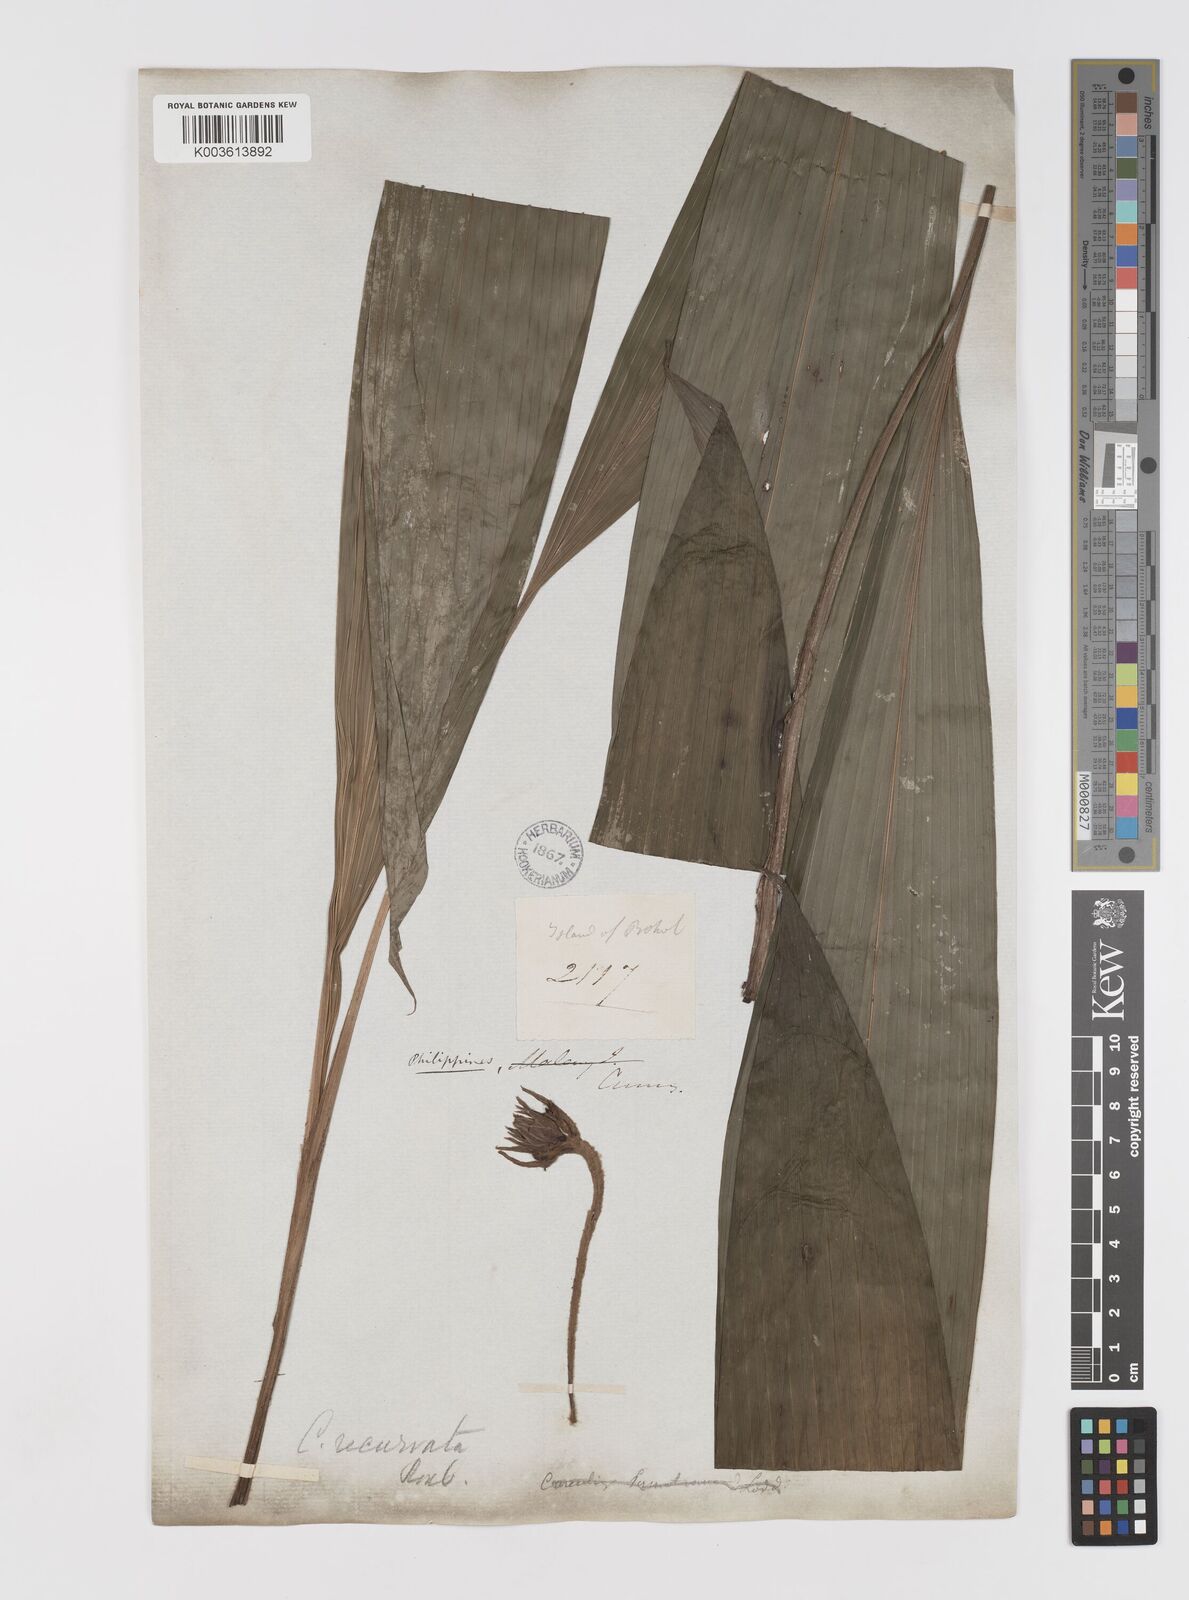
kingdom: Plantae
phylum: Tracheophyta
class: Liliopsida
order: Asparagales
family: Hypoxidaceae
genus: Curculigo
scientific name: Curculigo capitulata
